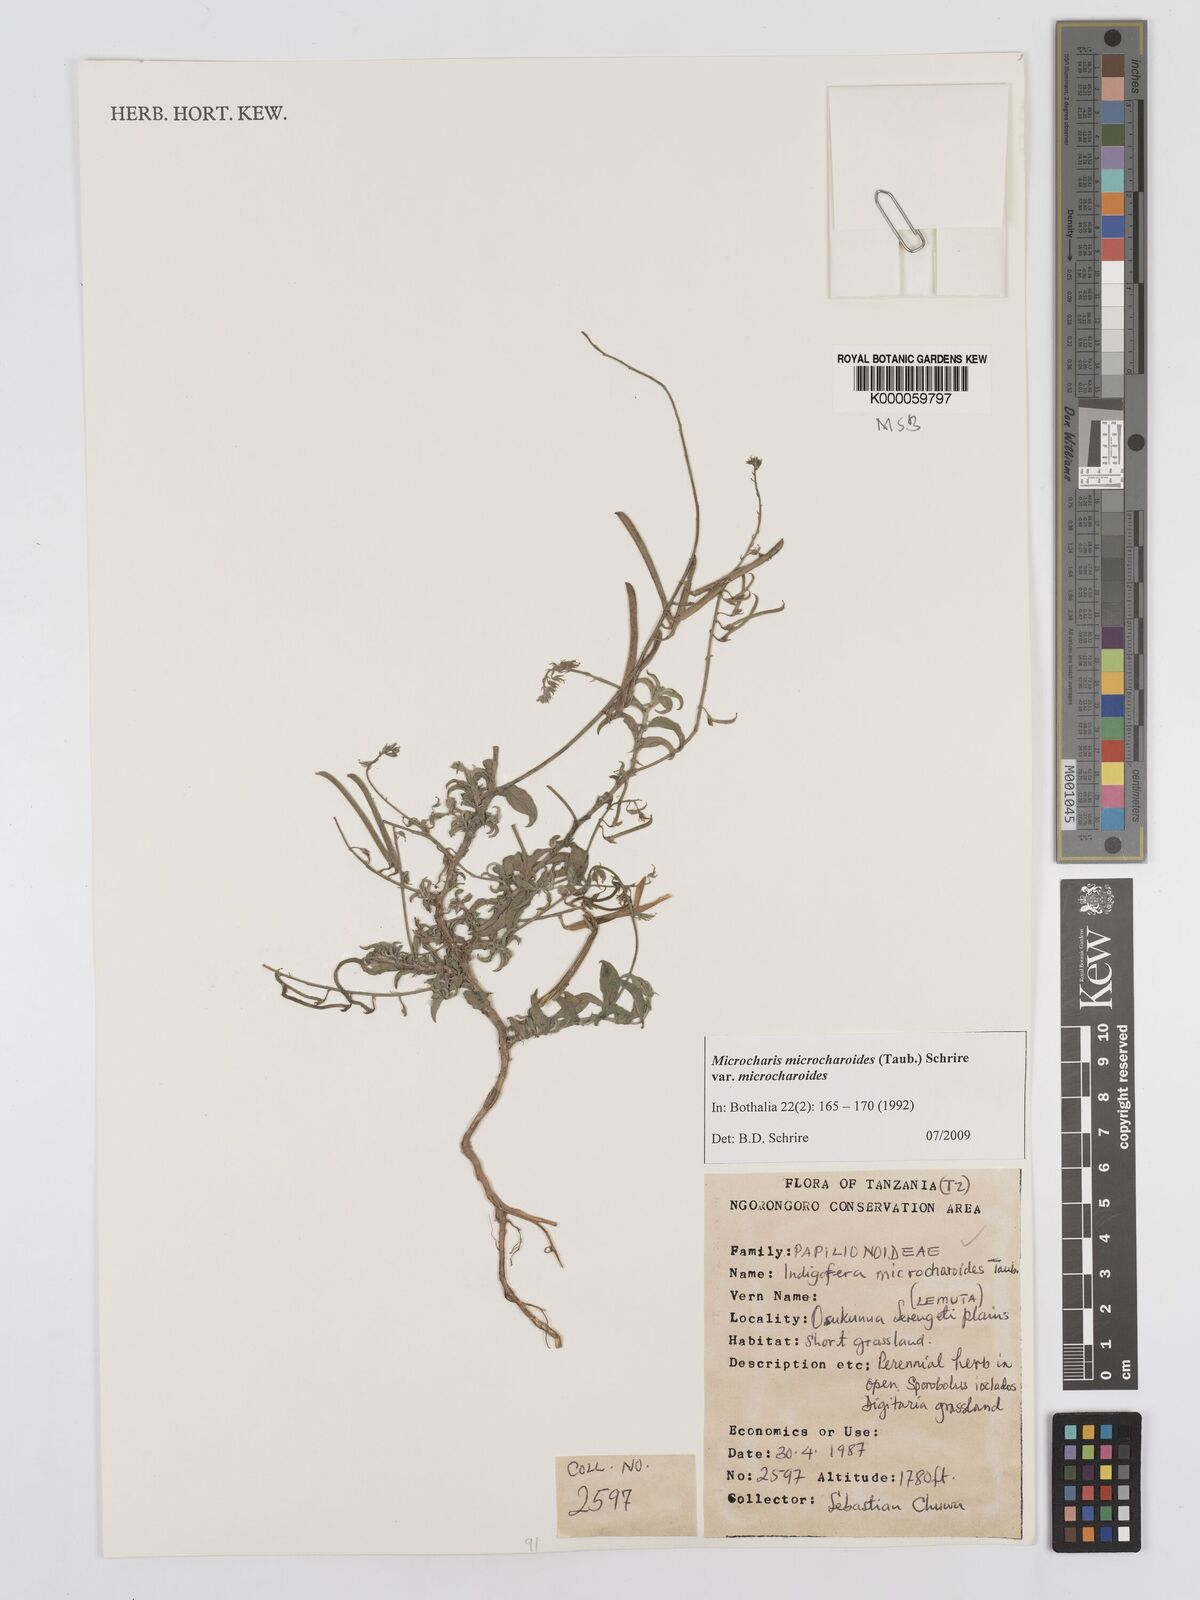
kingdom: Plantae
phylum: Tracheophyta
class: Magnoliopsida
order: Fabales
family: Fabaceae
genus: Microcharis
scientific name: Microcharis microcharoides
